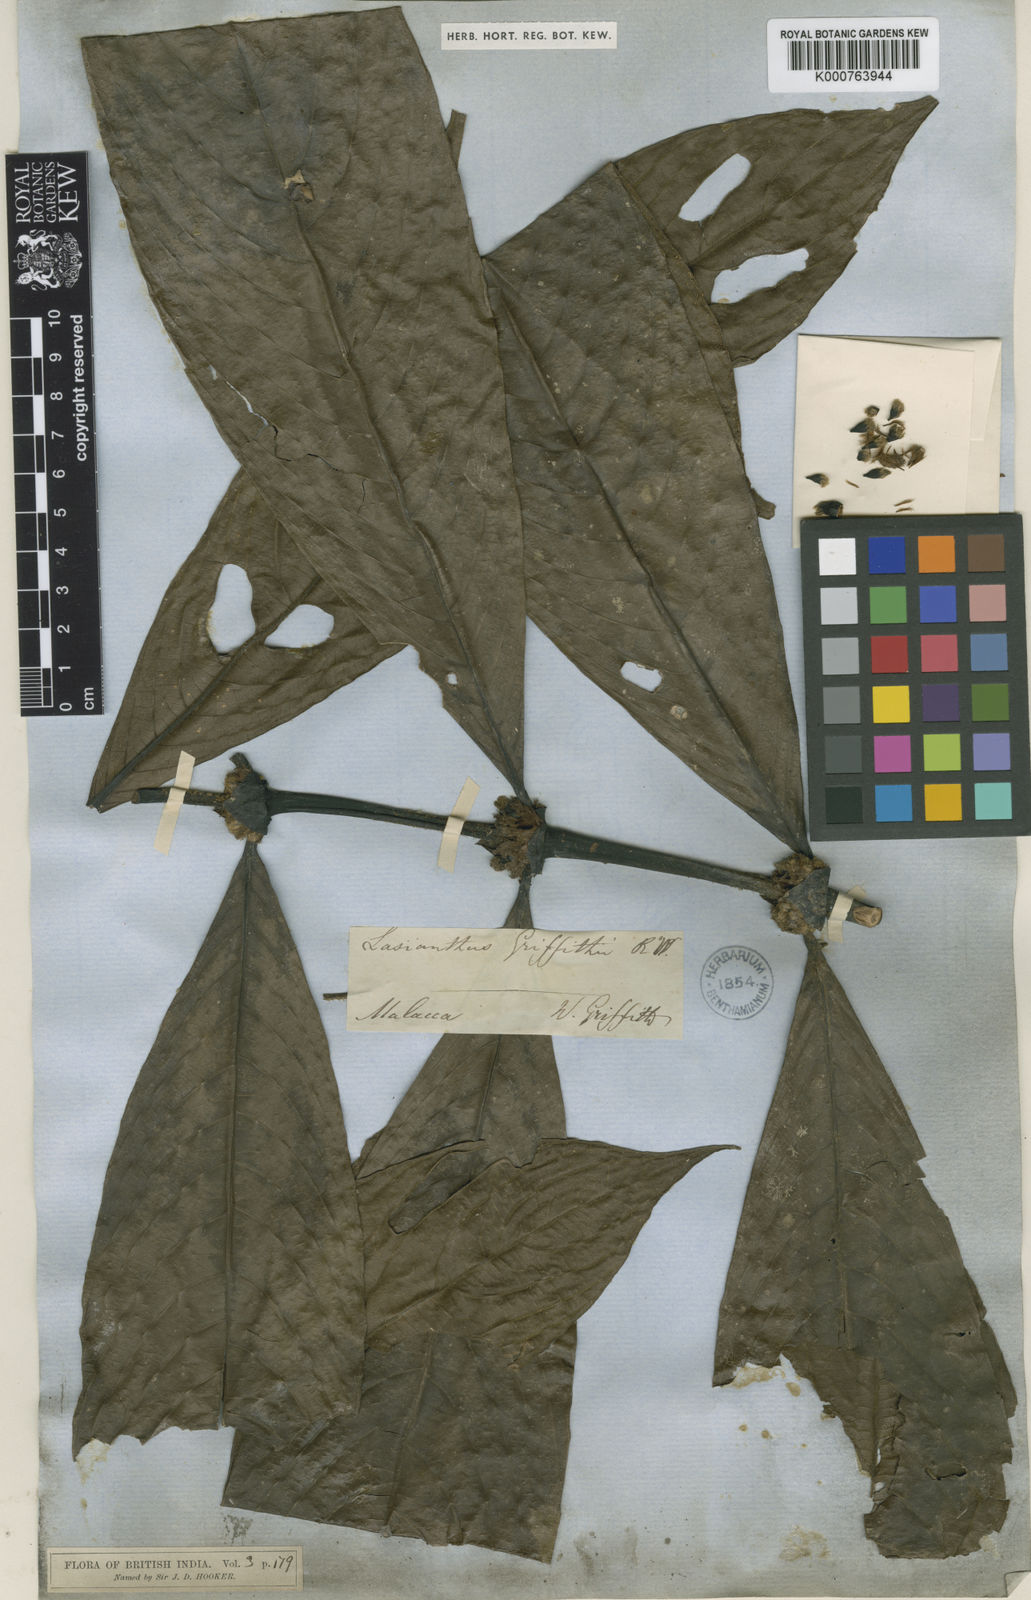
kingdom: Plantae
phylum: Tracheophyta
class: Magnoliopsida
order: Gentianales
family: Rubiaceae
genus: Lasianthus
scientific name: Lasianthus griffithii
